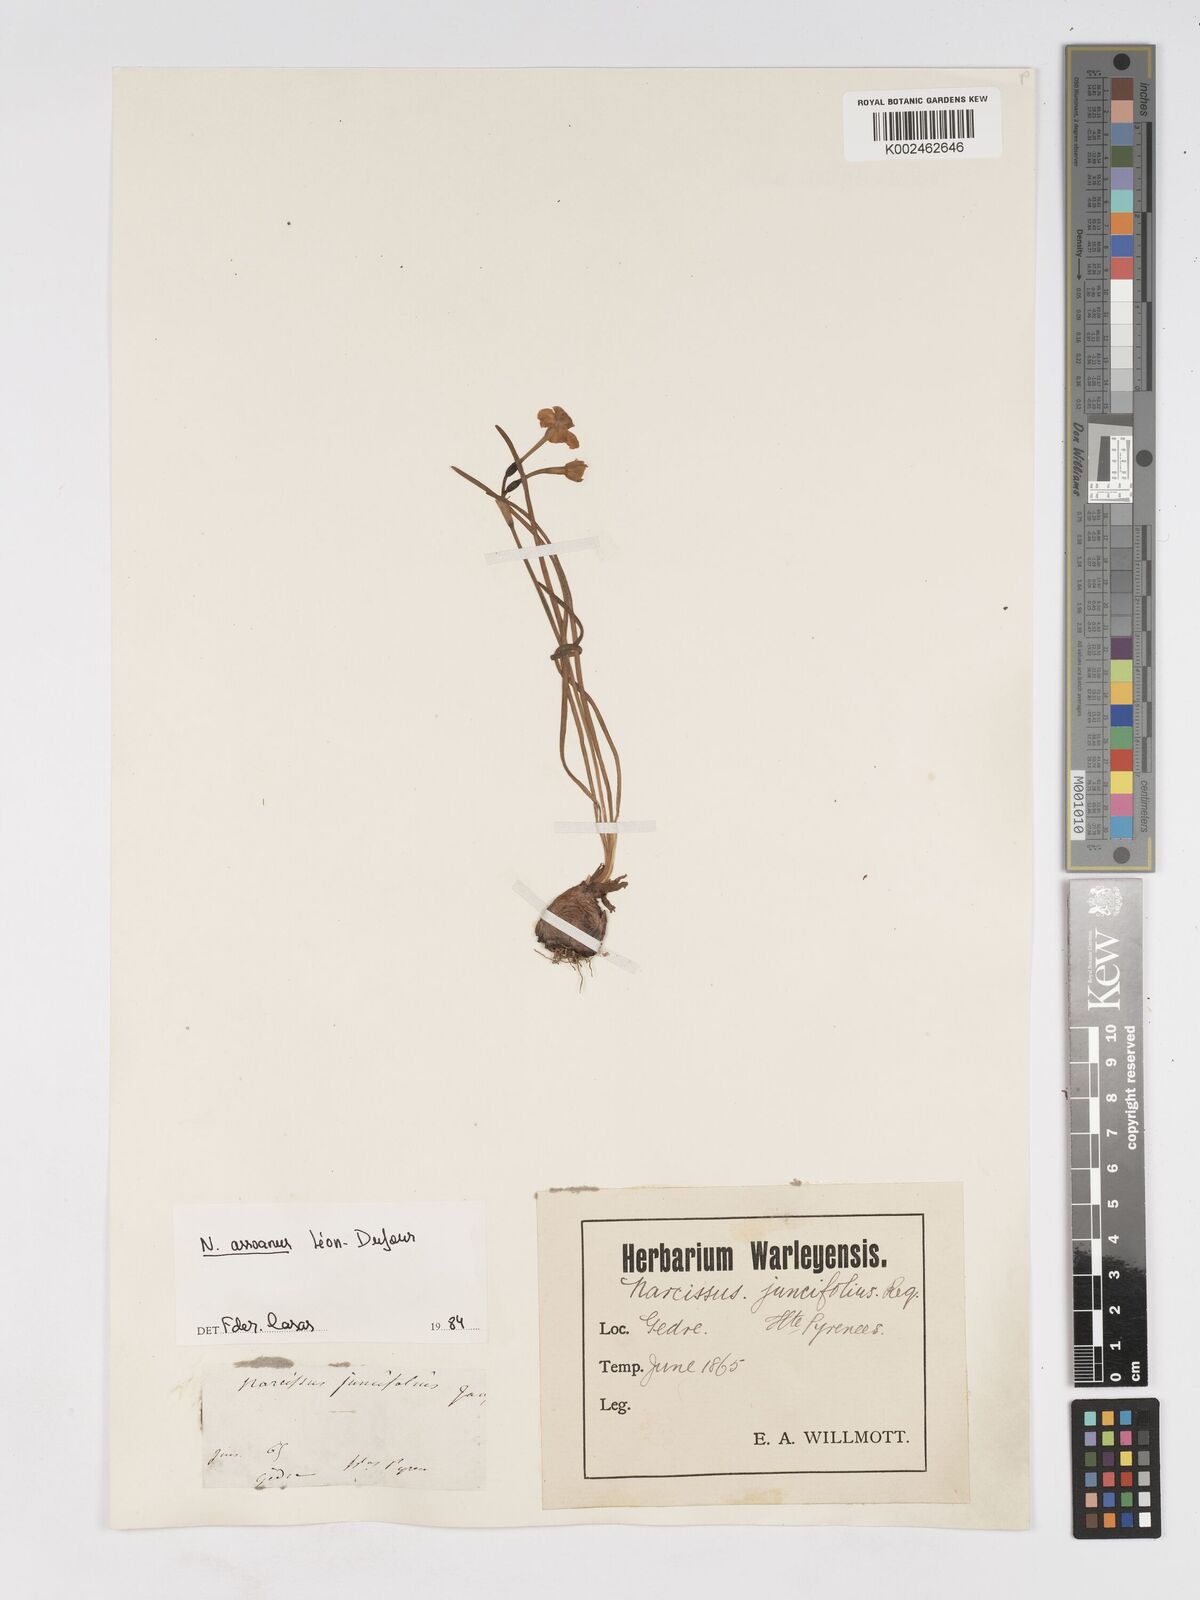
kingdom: Plantae
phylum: Tracheophyta
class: Liliopsida
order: Asparagales
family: Amaryllidaceae
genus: Narcissus
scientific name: Narcissus assoanus
